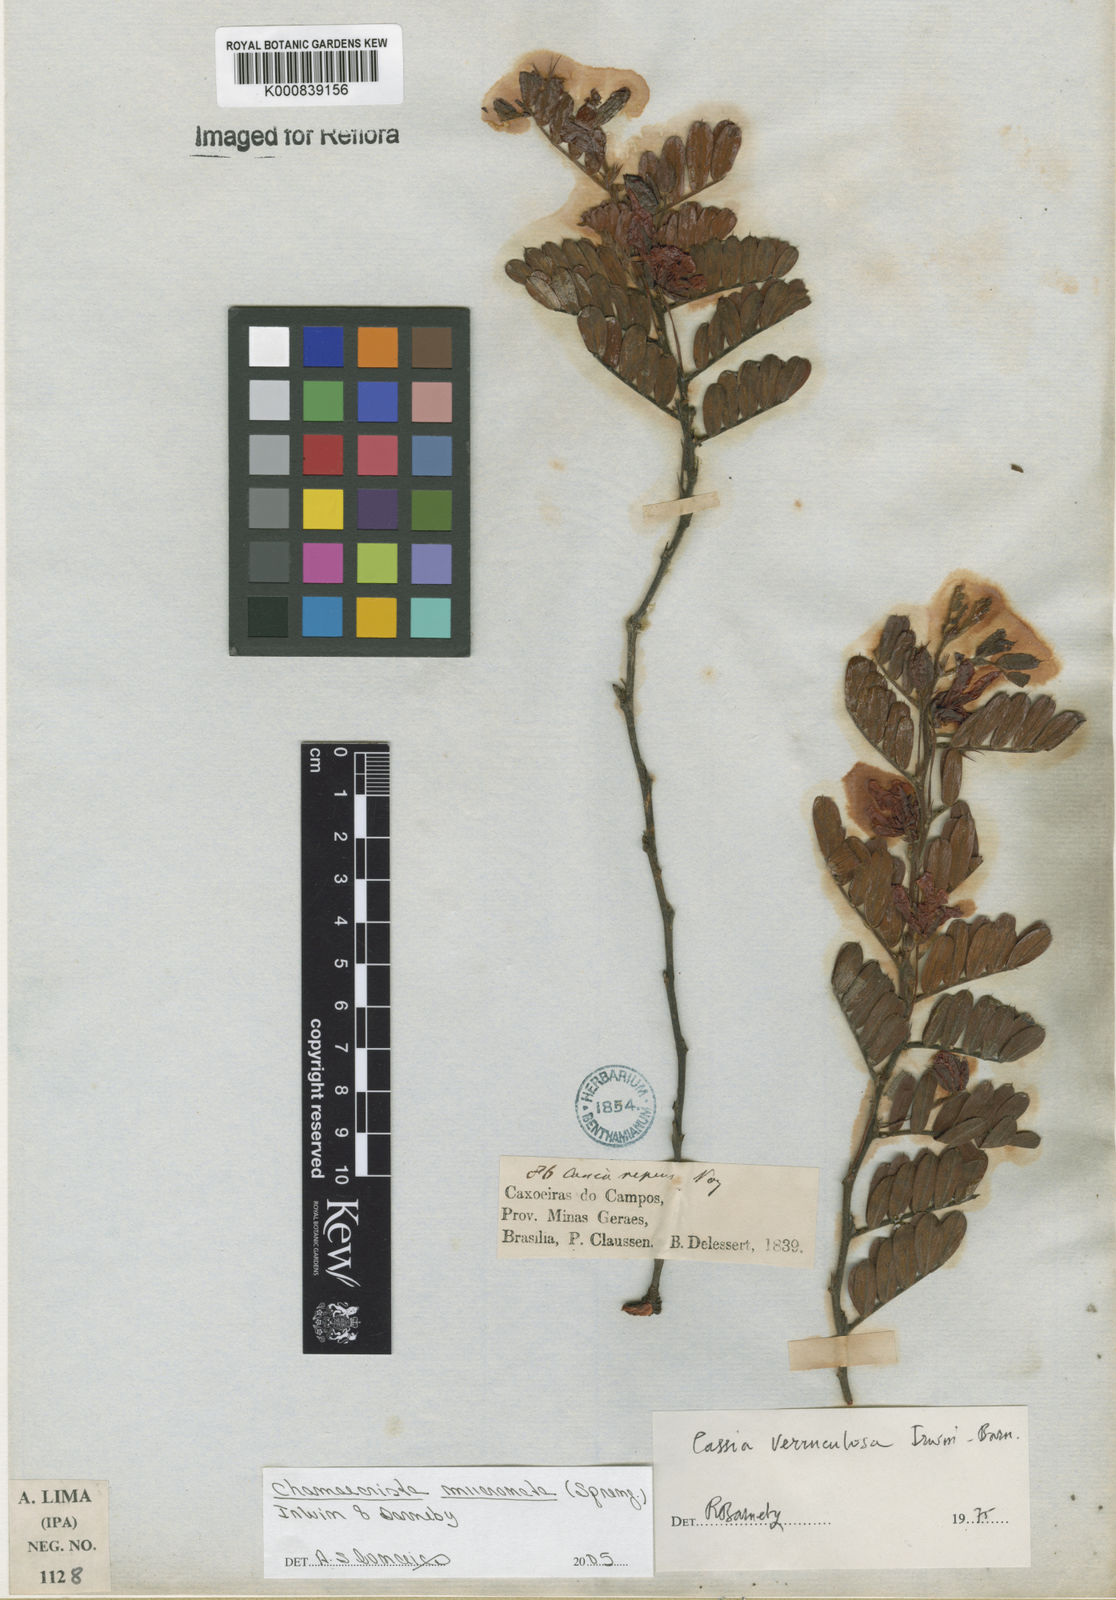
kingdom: Plantae
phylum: Tracheophyta
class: Magnoliopsida
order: Fabales
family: Fabaceae
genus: Chamaecrista
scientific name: Chamaecrista mucronata
